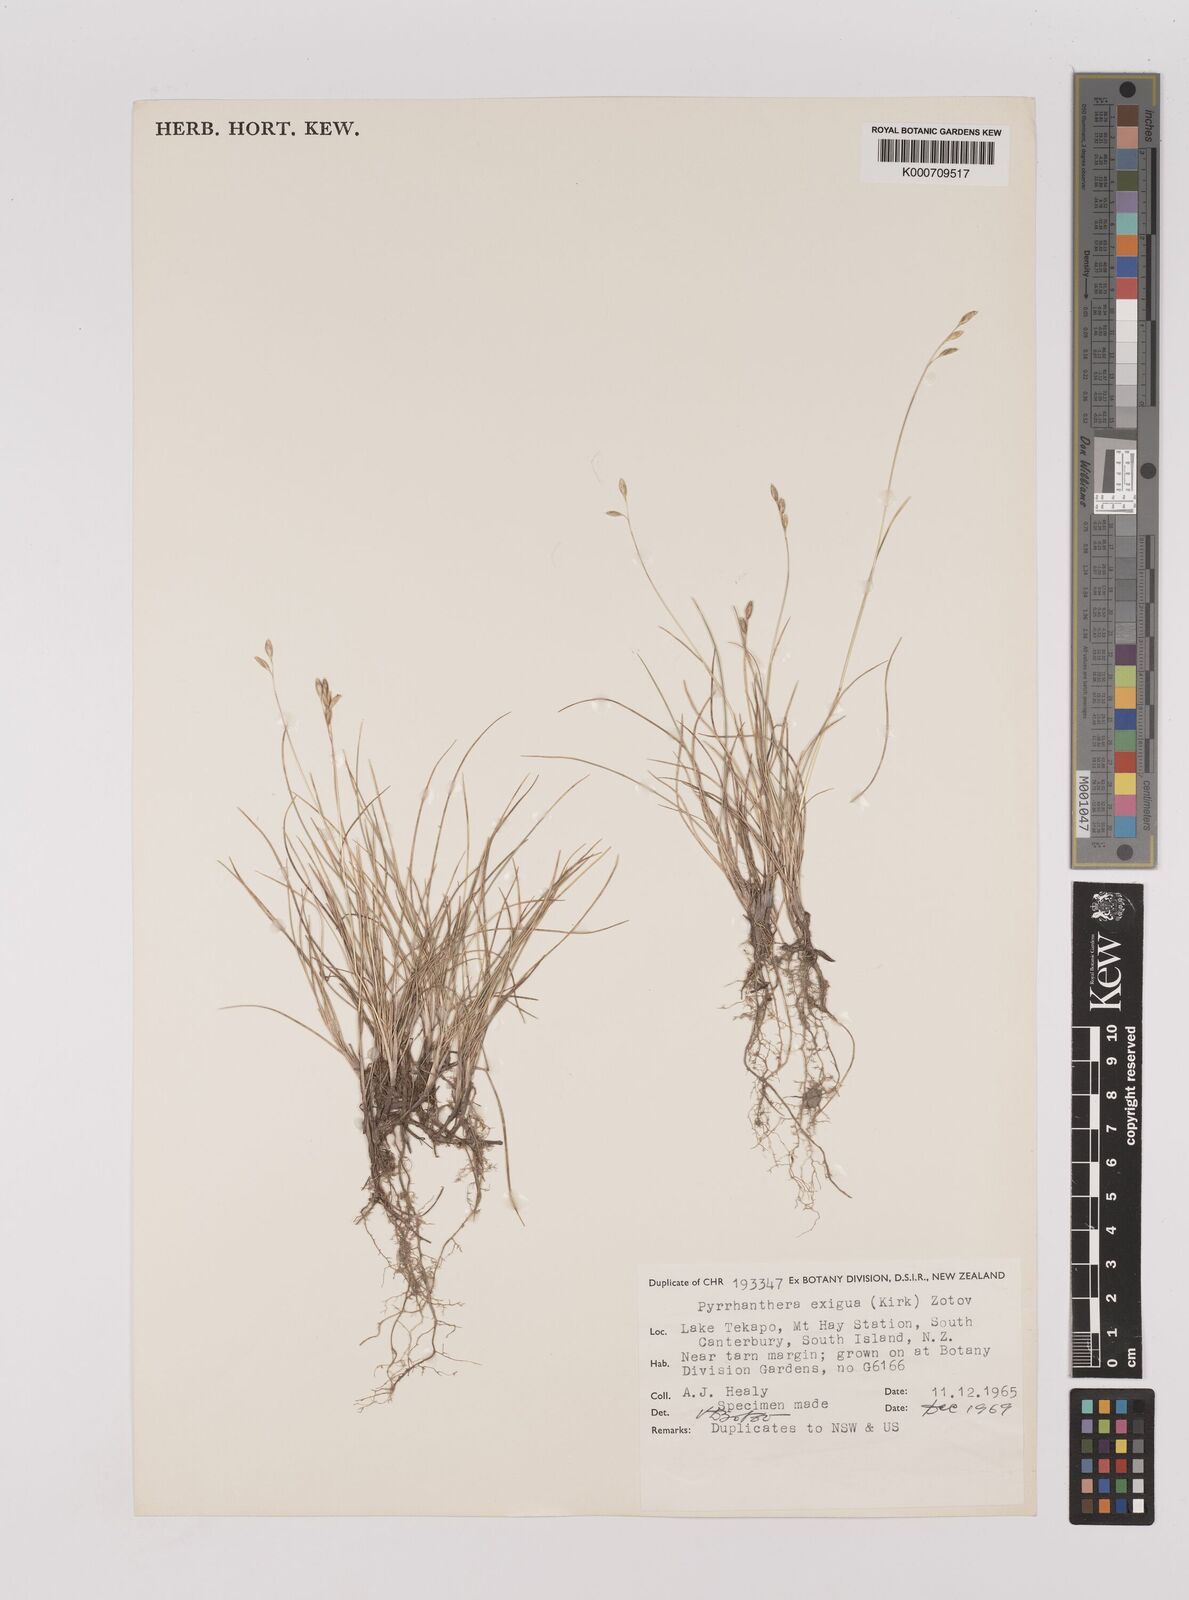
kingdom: Plantae
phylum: Tracheophyta
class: Liliopsida
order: Poales
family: Poaceae
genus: Rytidosperma
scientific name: Rytidosperma exiguum
